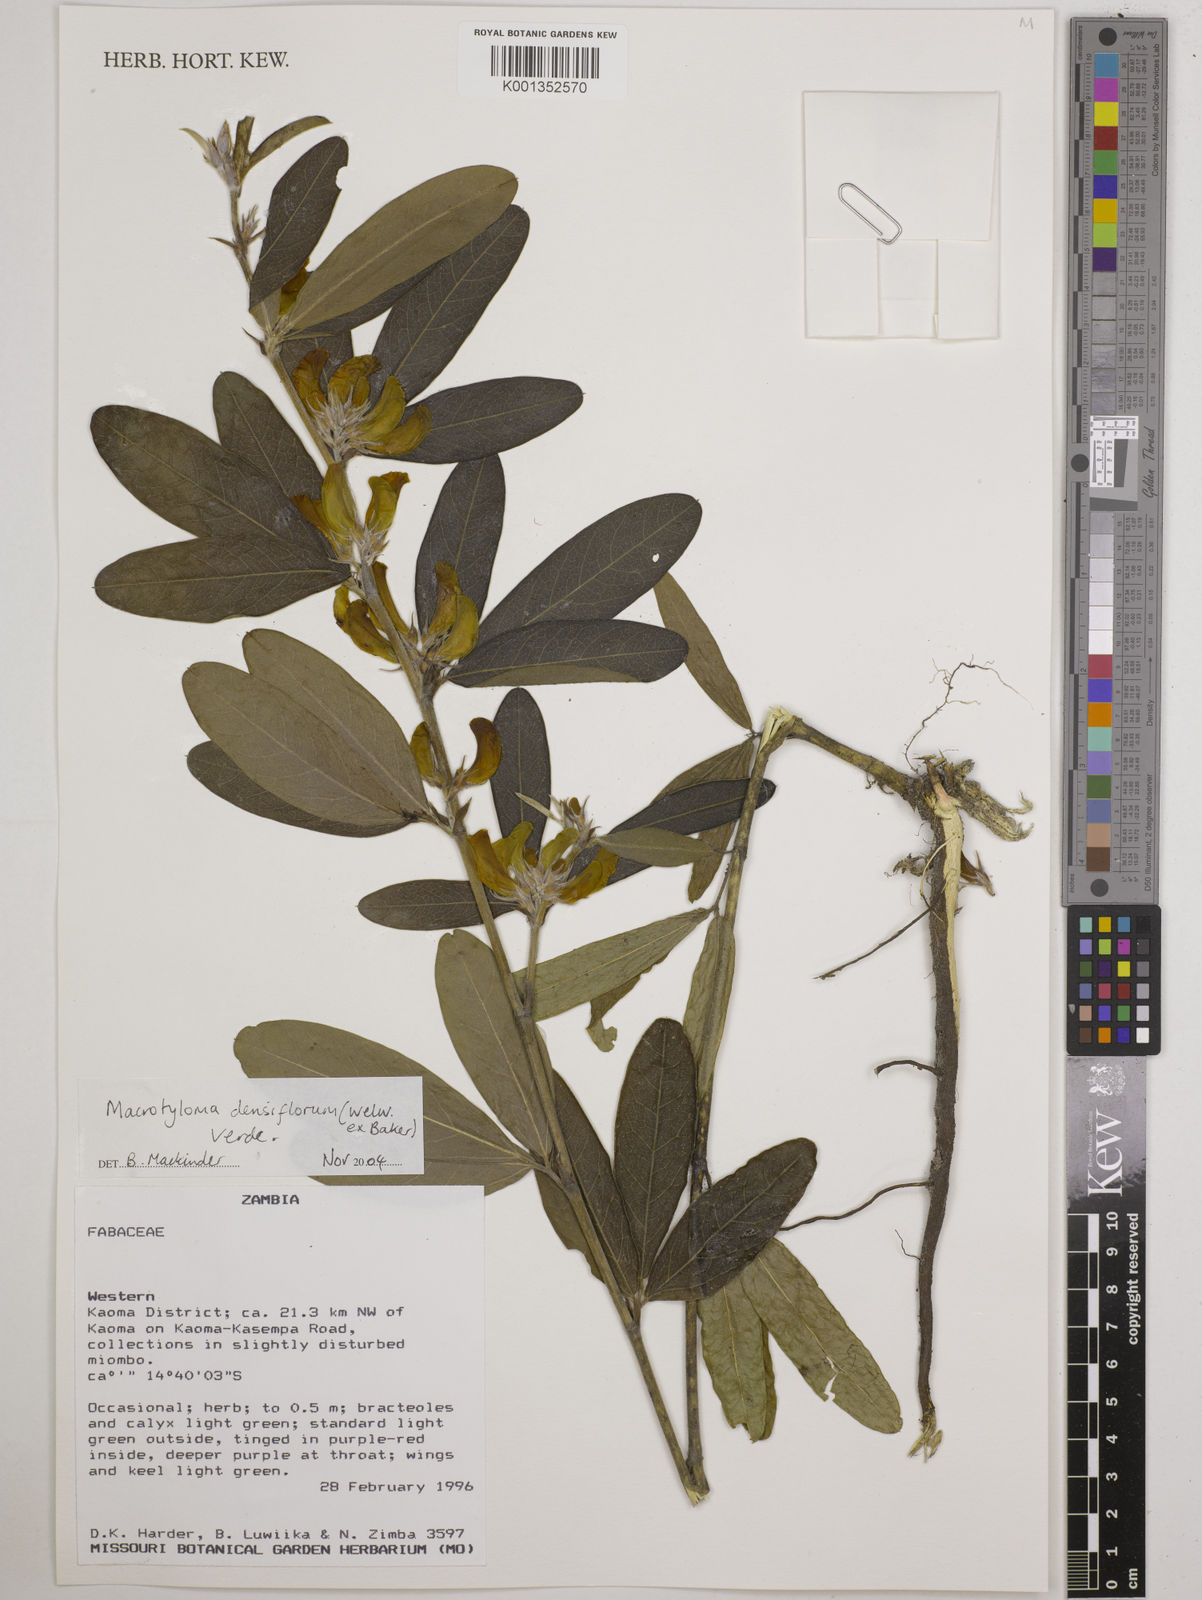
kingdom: Plantae
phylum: Tracheophyta
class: Magnoliopsida
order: Fabales
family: Fabaceae
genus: Macrotyloma
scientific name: Macrotyloma densiflorum
